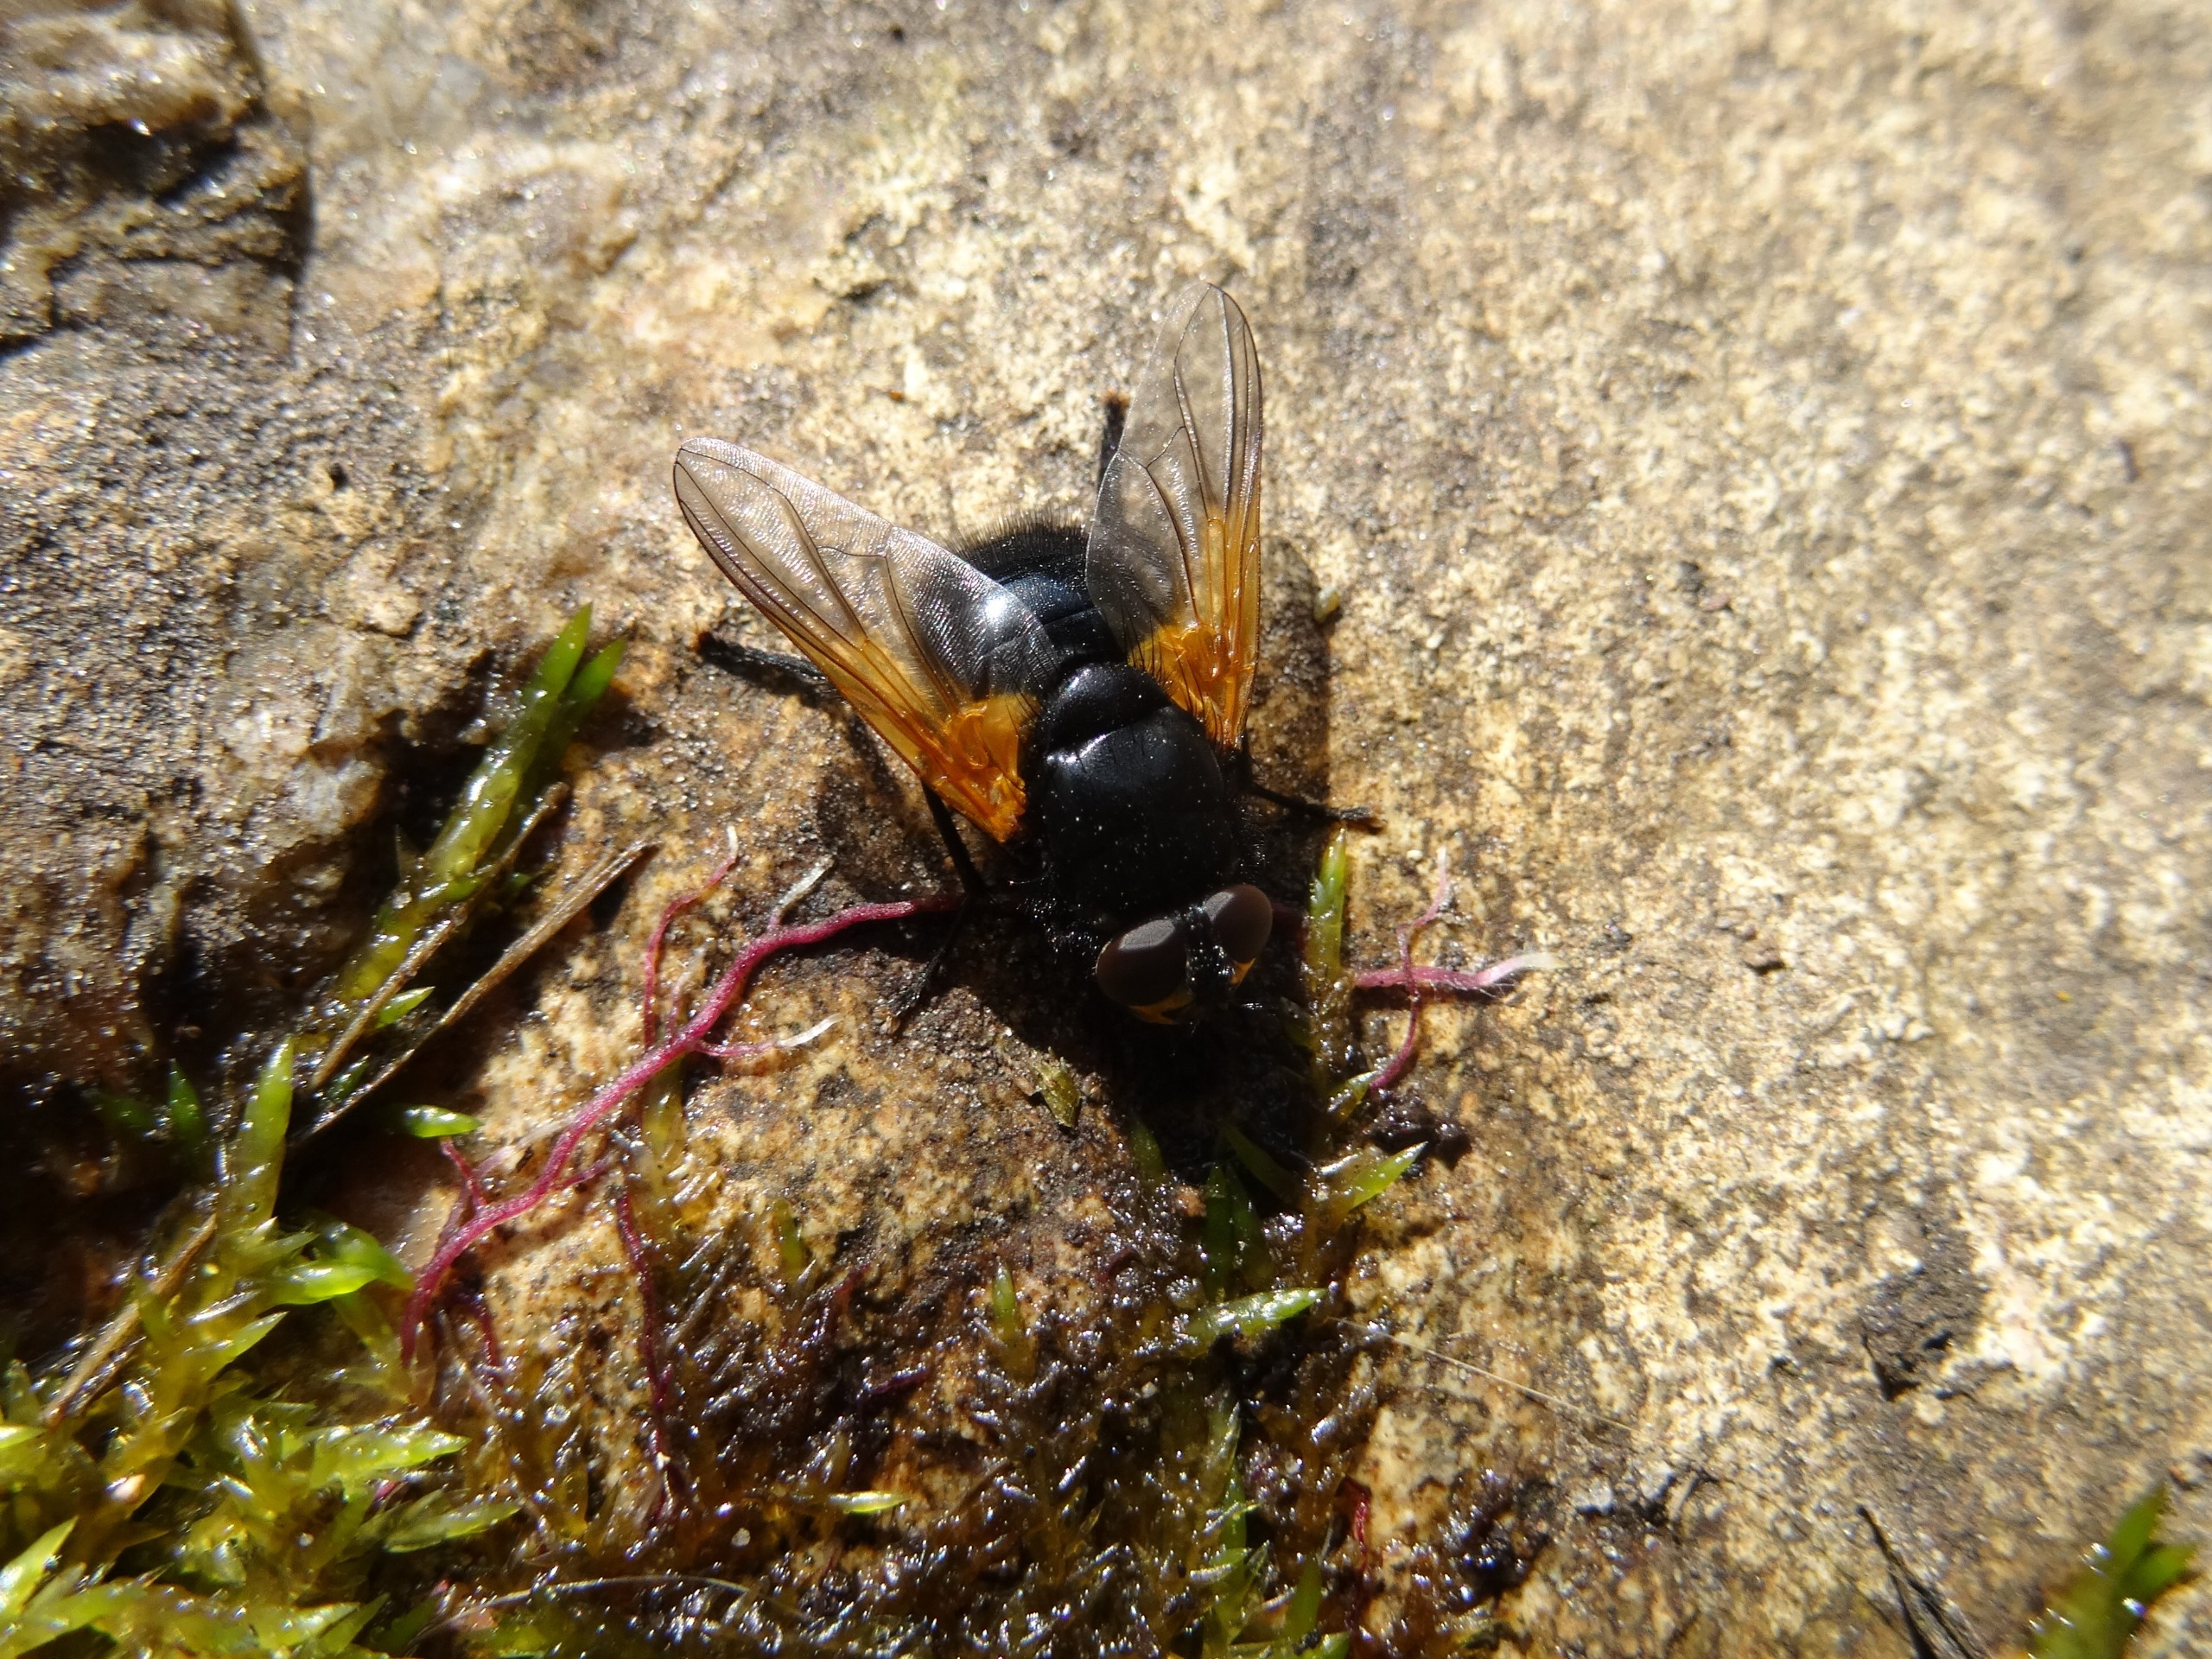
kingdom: Animalia
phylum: Arthropoda
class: Insecta
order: Diptera
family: Muscidae
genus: Mesembrina
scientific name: Mesembrina meridiana
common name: Gulvinget flue
